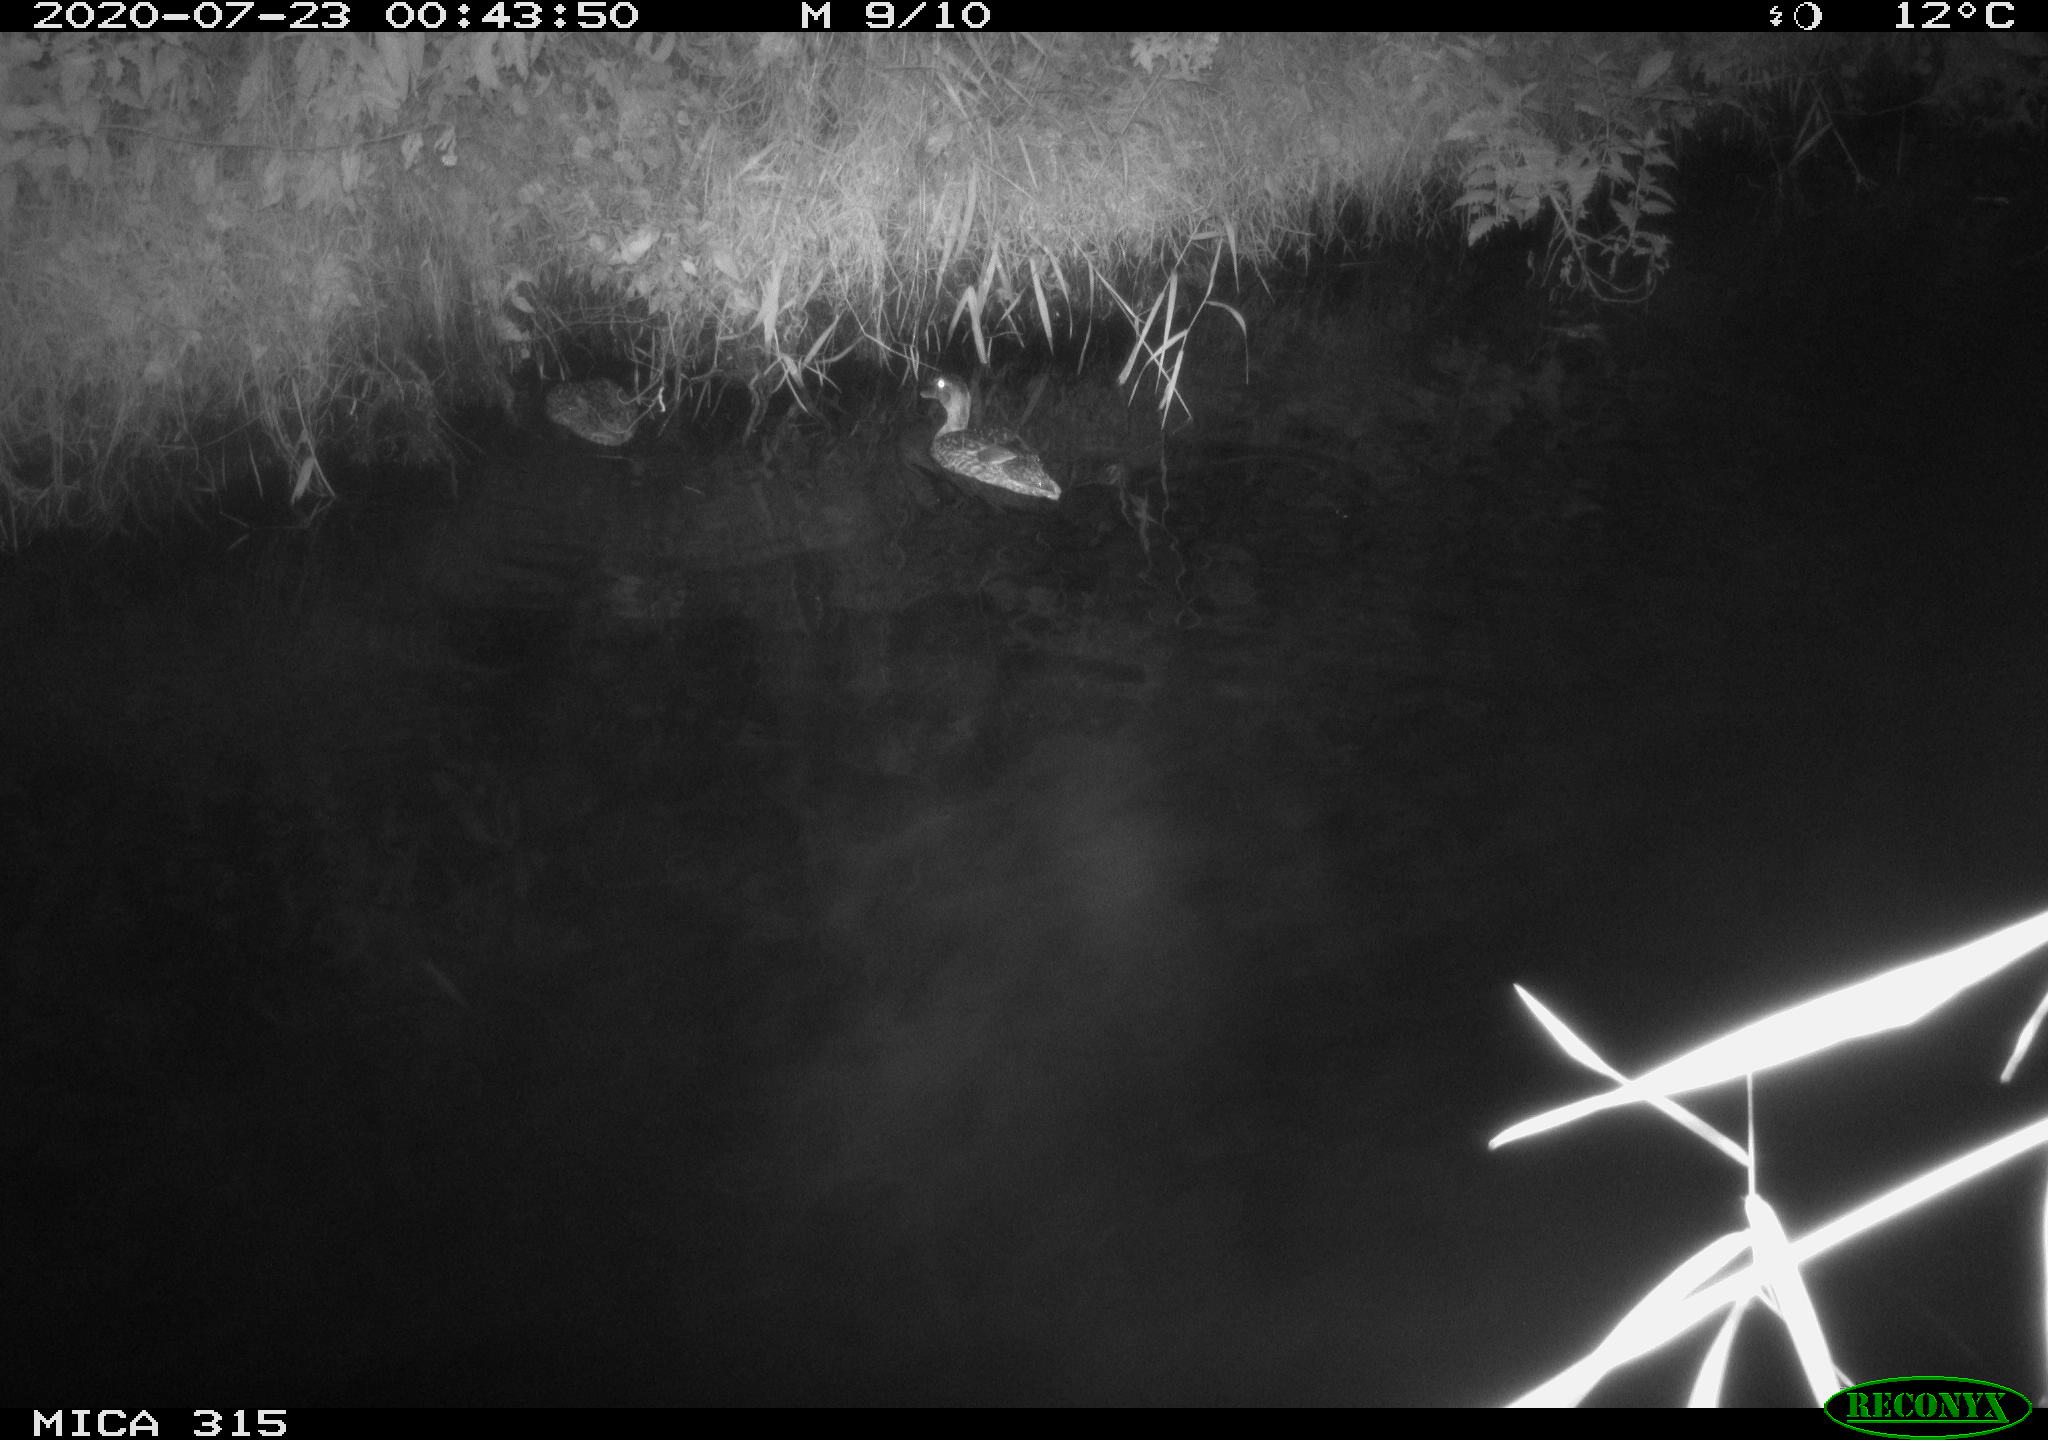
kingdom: Animalia
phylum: Chordata
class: Aves
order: Anseriformes
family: Anatidae
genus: Anas
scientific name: Anas platyrhynchos
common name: Mallard
